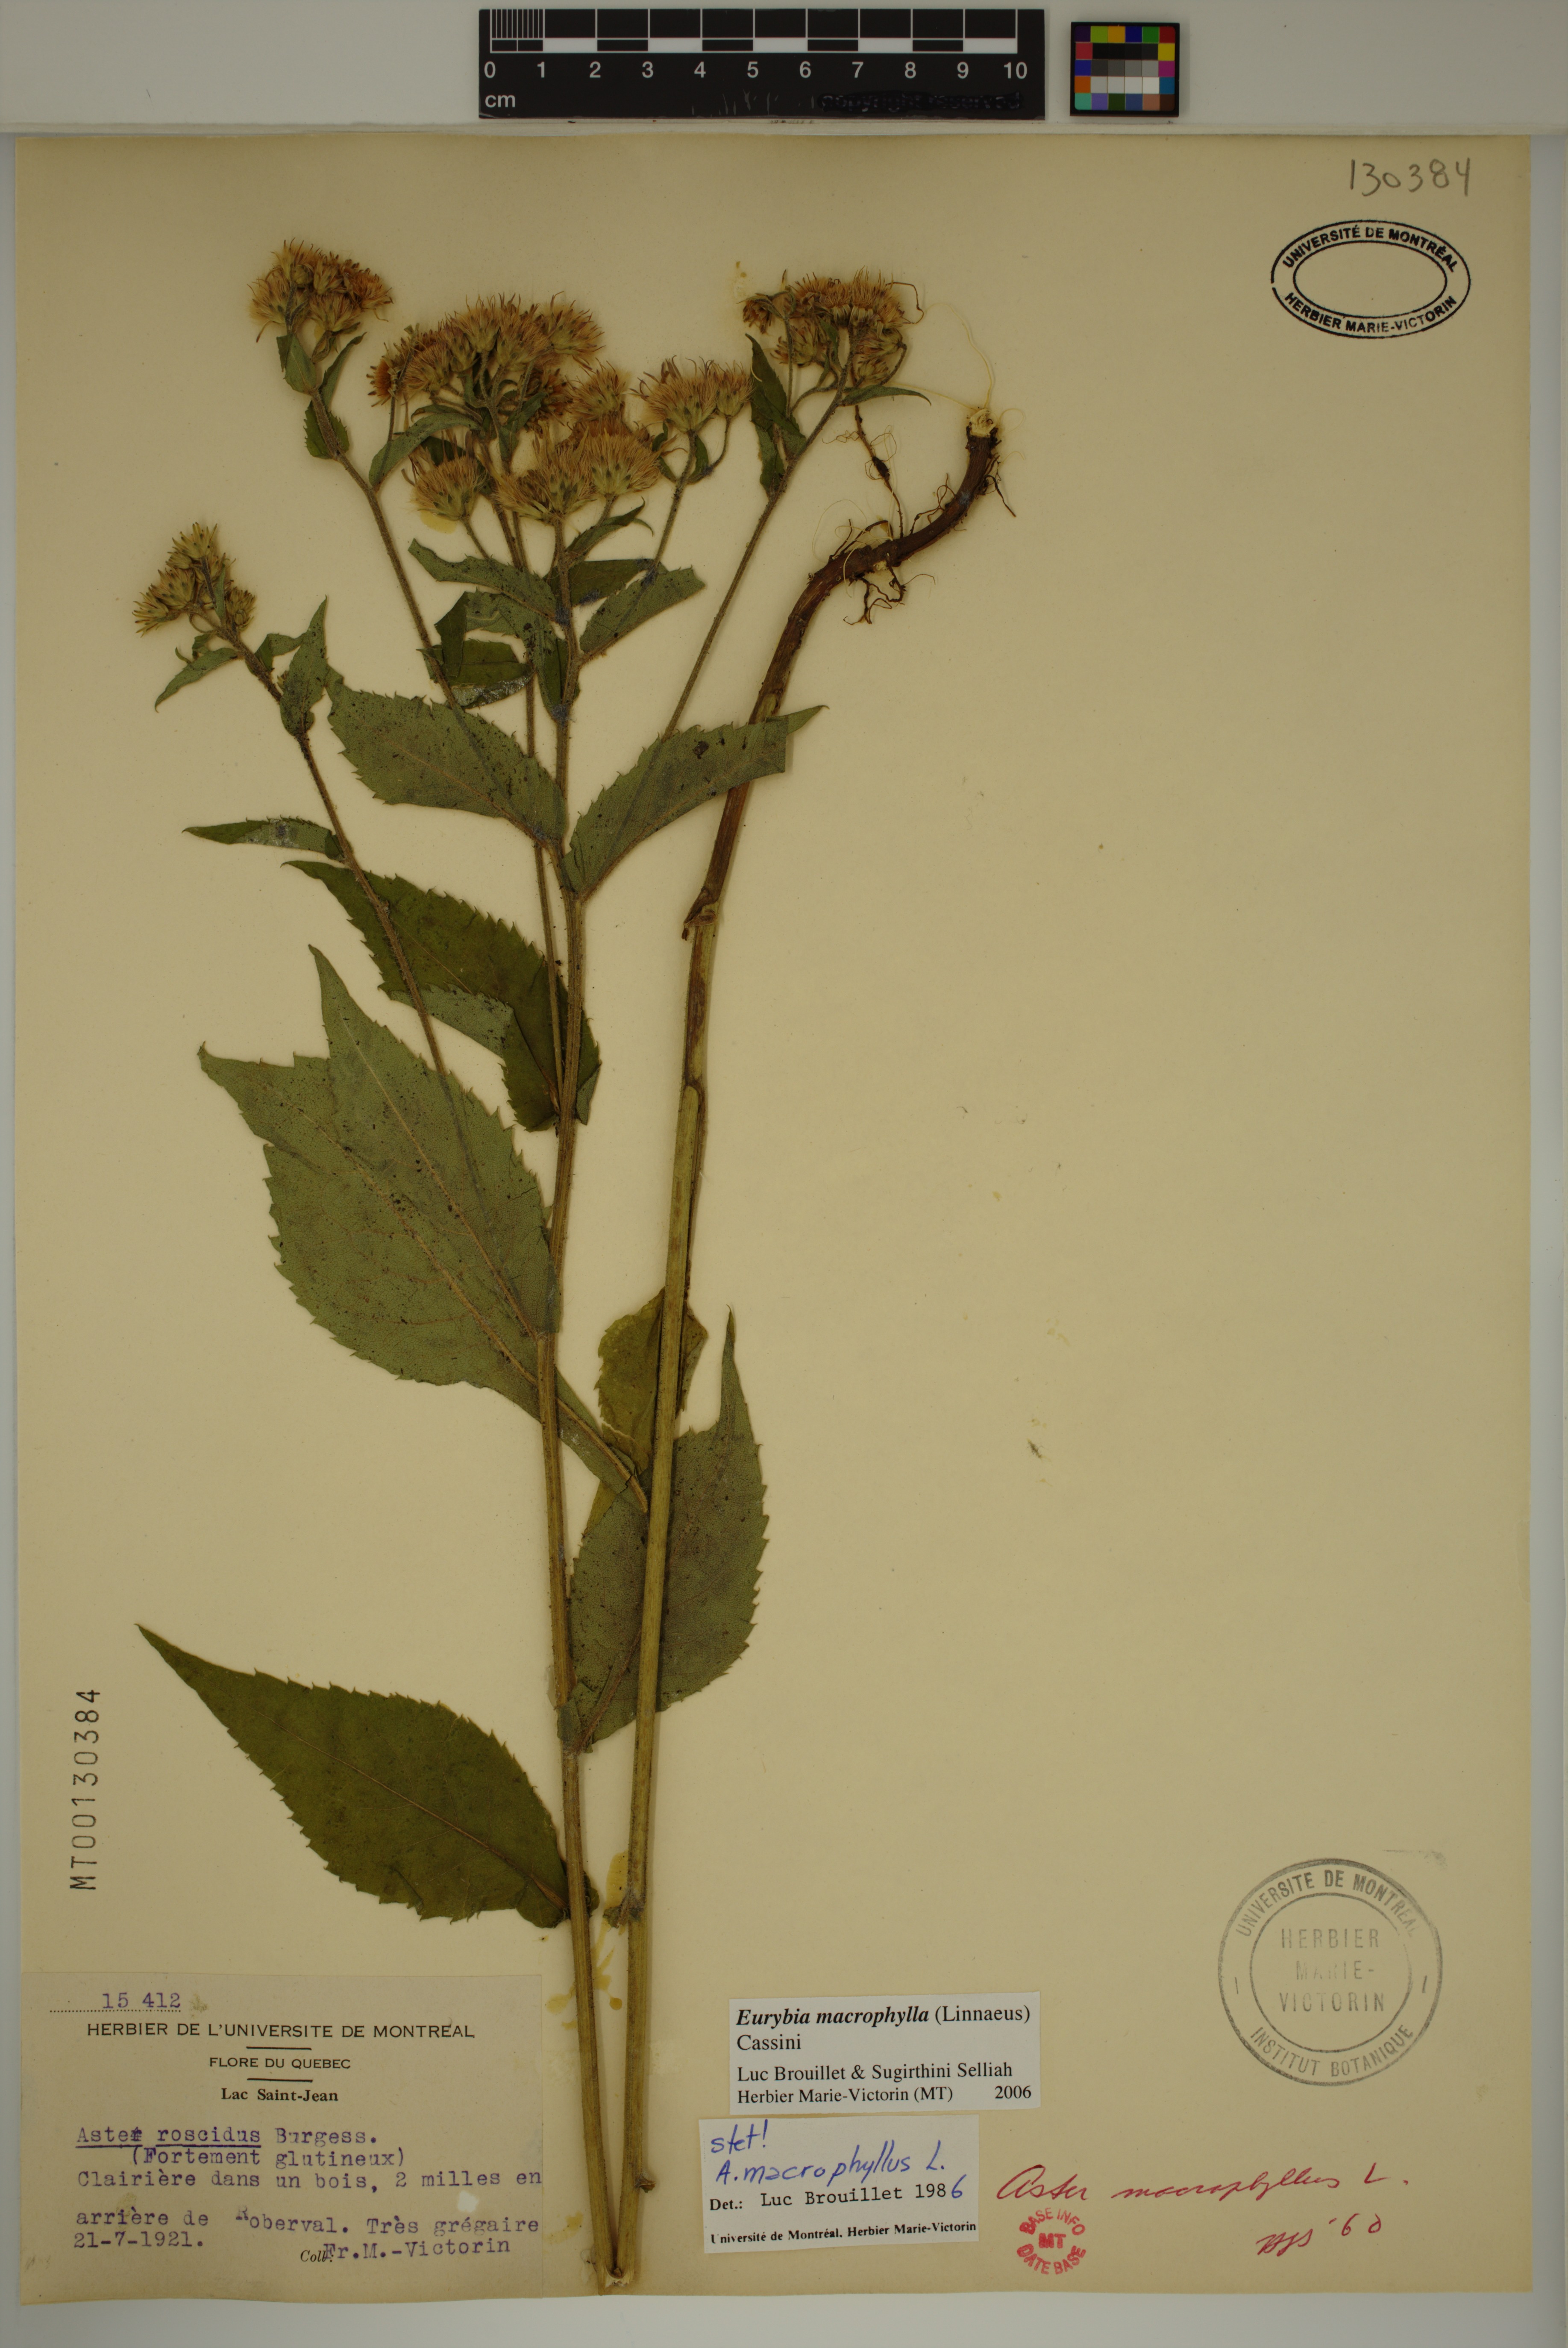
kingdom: Plantae
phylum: Tracheophyta
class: Magnoliopsida
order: Asterales
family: Asteraceae
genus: Eurybia
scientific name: Eurybia macrophylla
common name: Big-leaved aster
